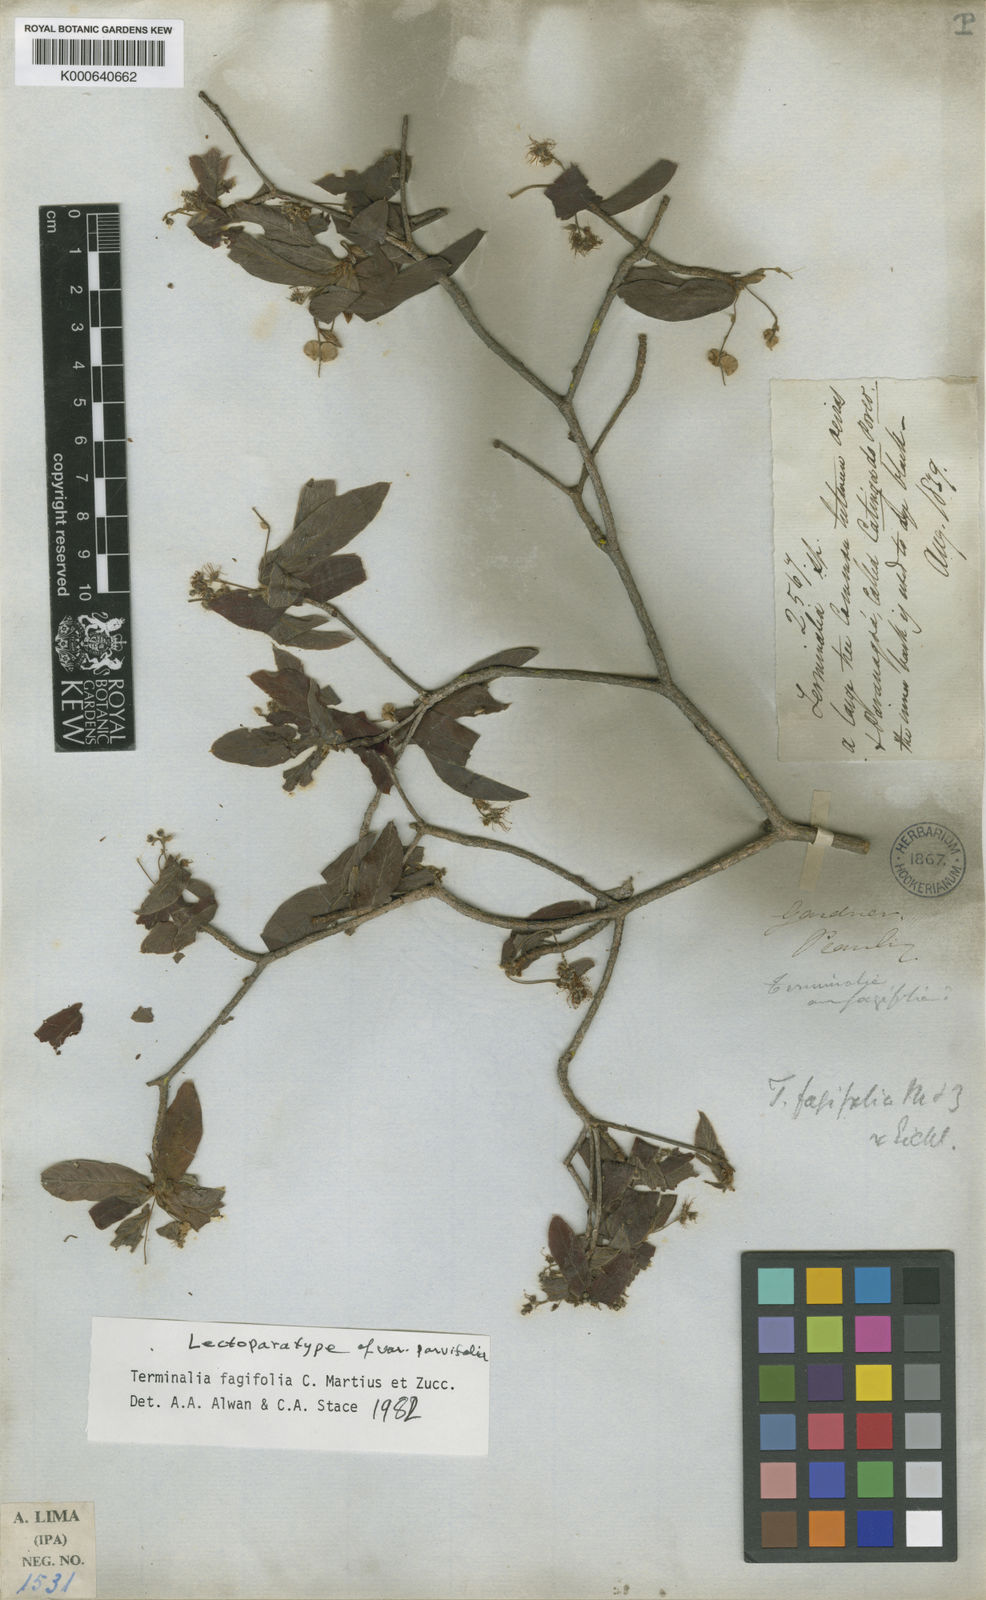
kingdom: Plantae
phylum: Tracheophyta
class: Magnoliopsida
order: Myrtales
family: Combretaceae
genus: Terminalia
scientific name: Terminalia fagifolia
